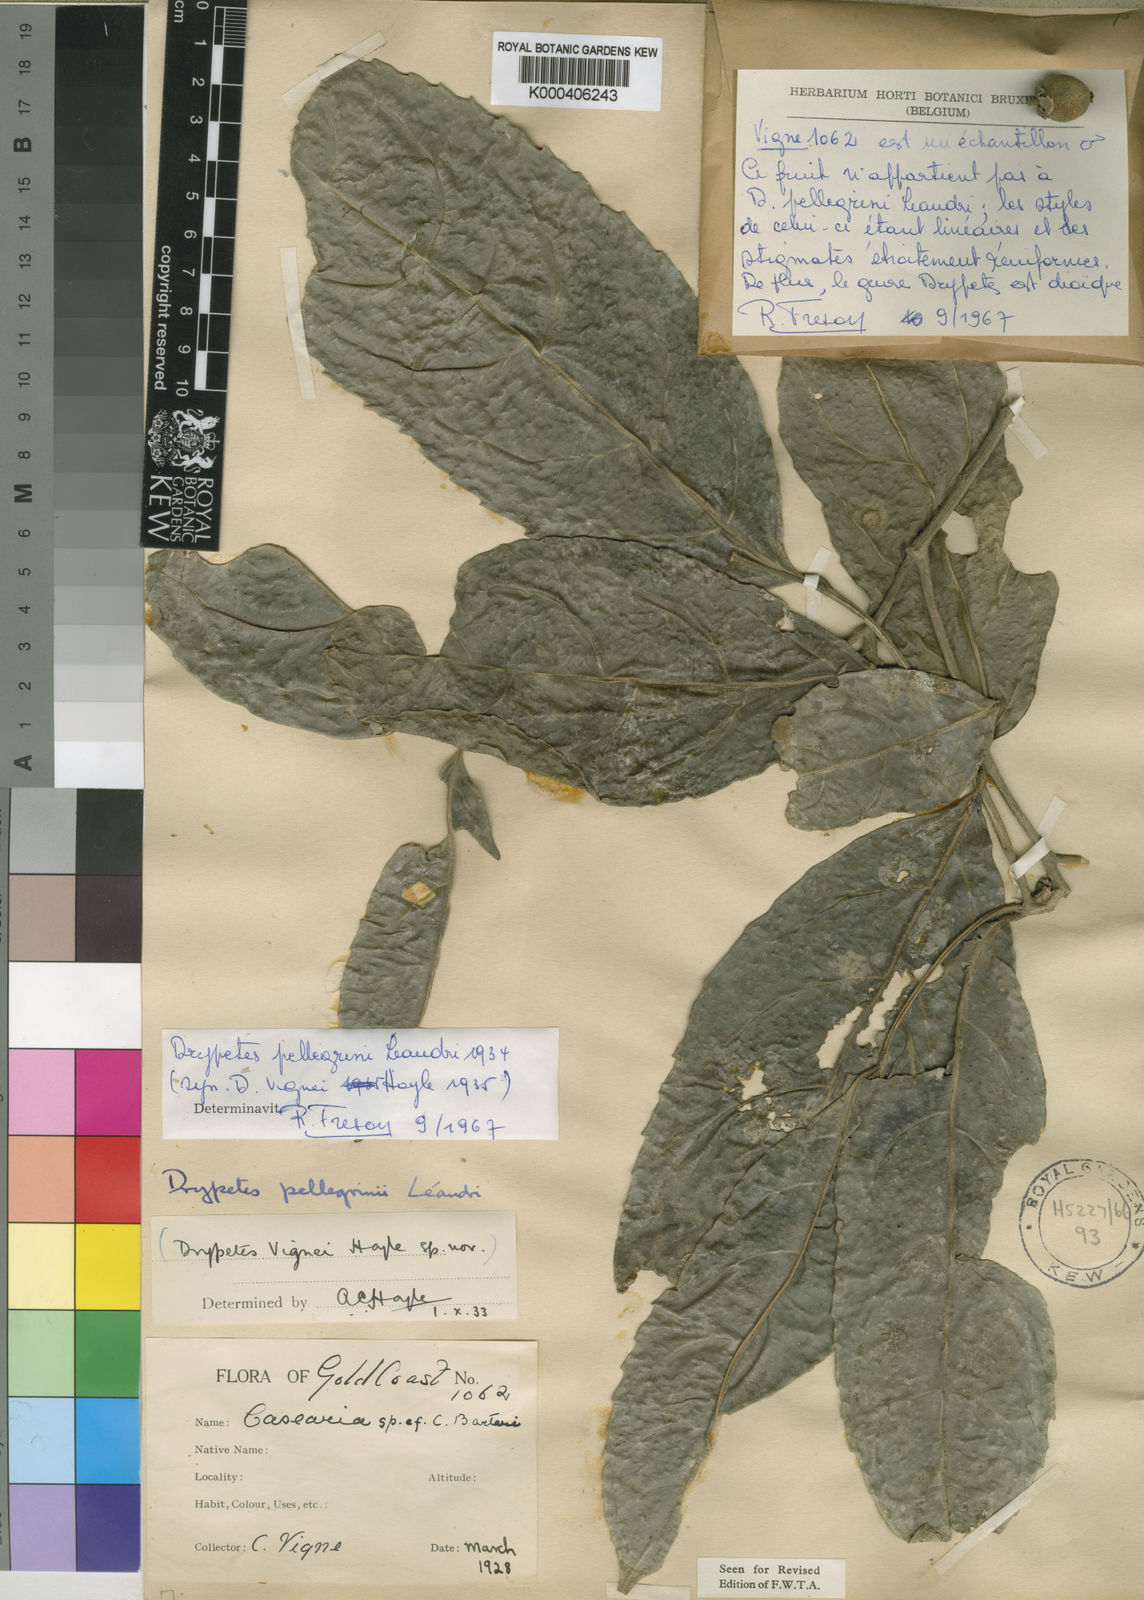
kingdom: Plantae
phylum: Tracheophyta
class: Magnoliopsida
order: Malpighiales
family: Putranjivaceae
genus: Drypetes
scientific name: Drypetes pellegrinii
